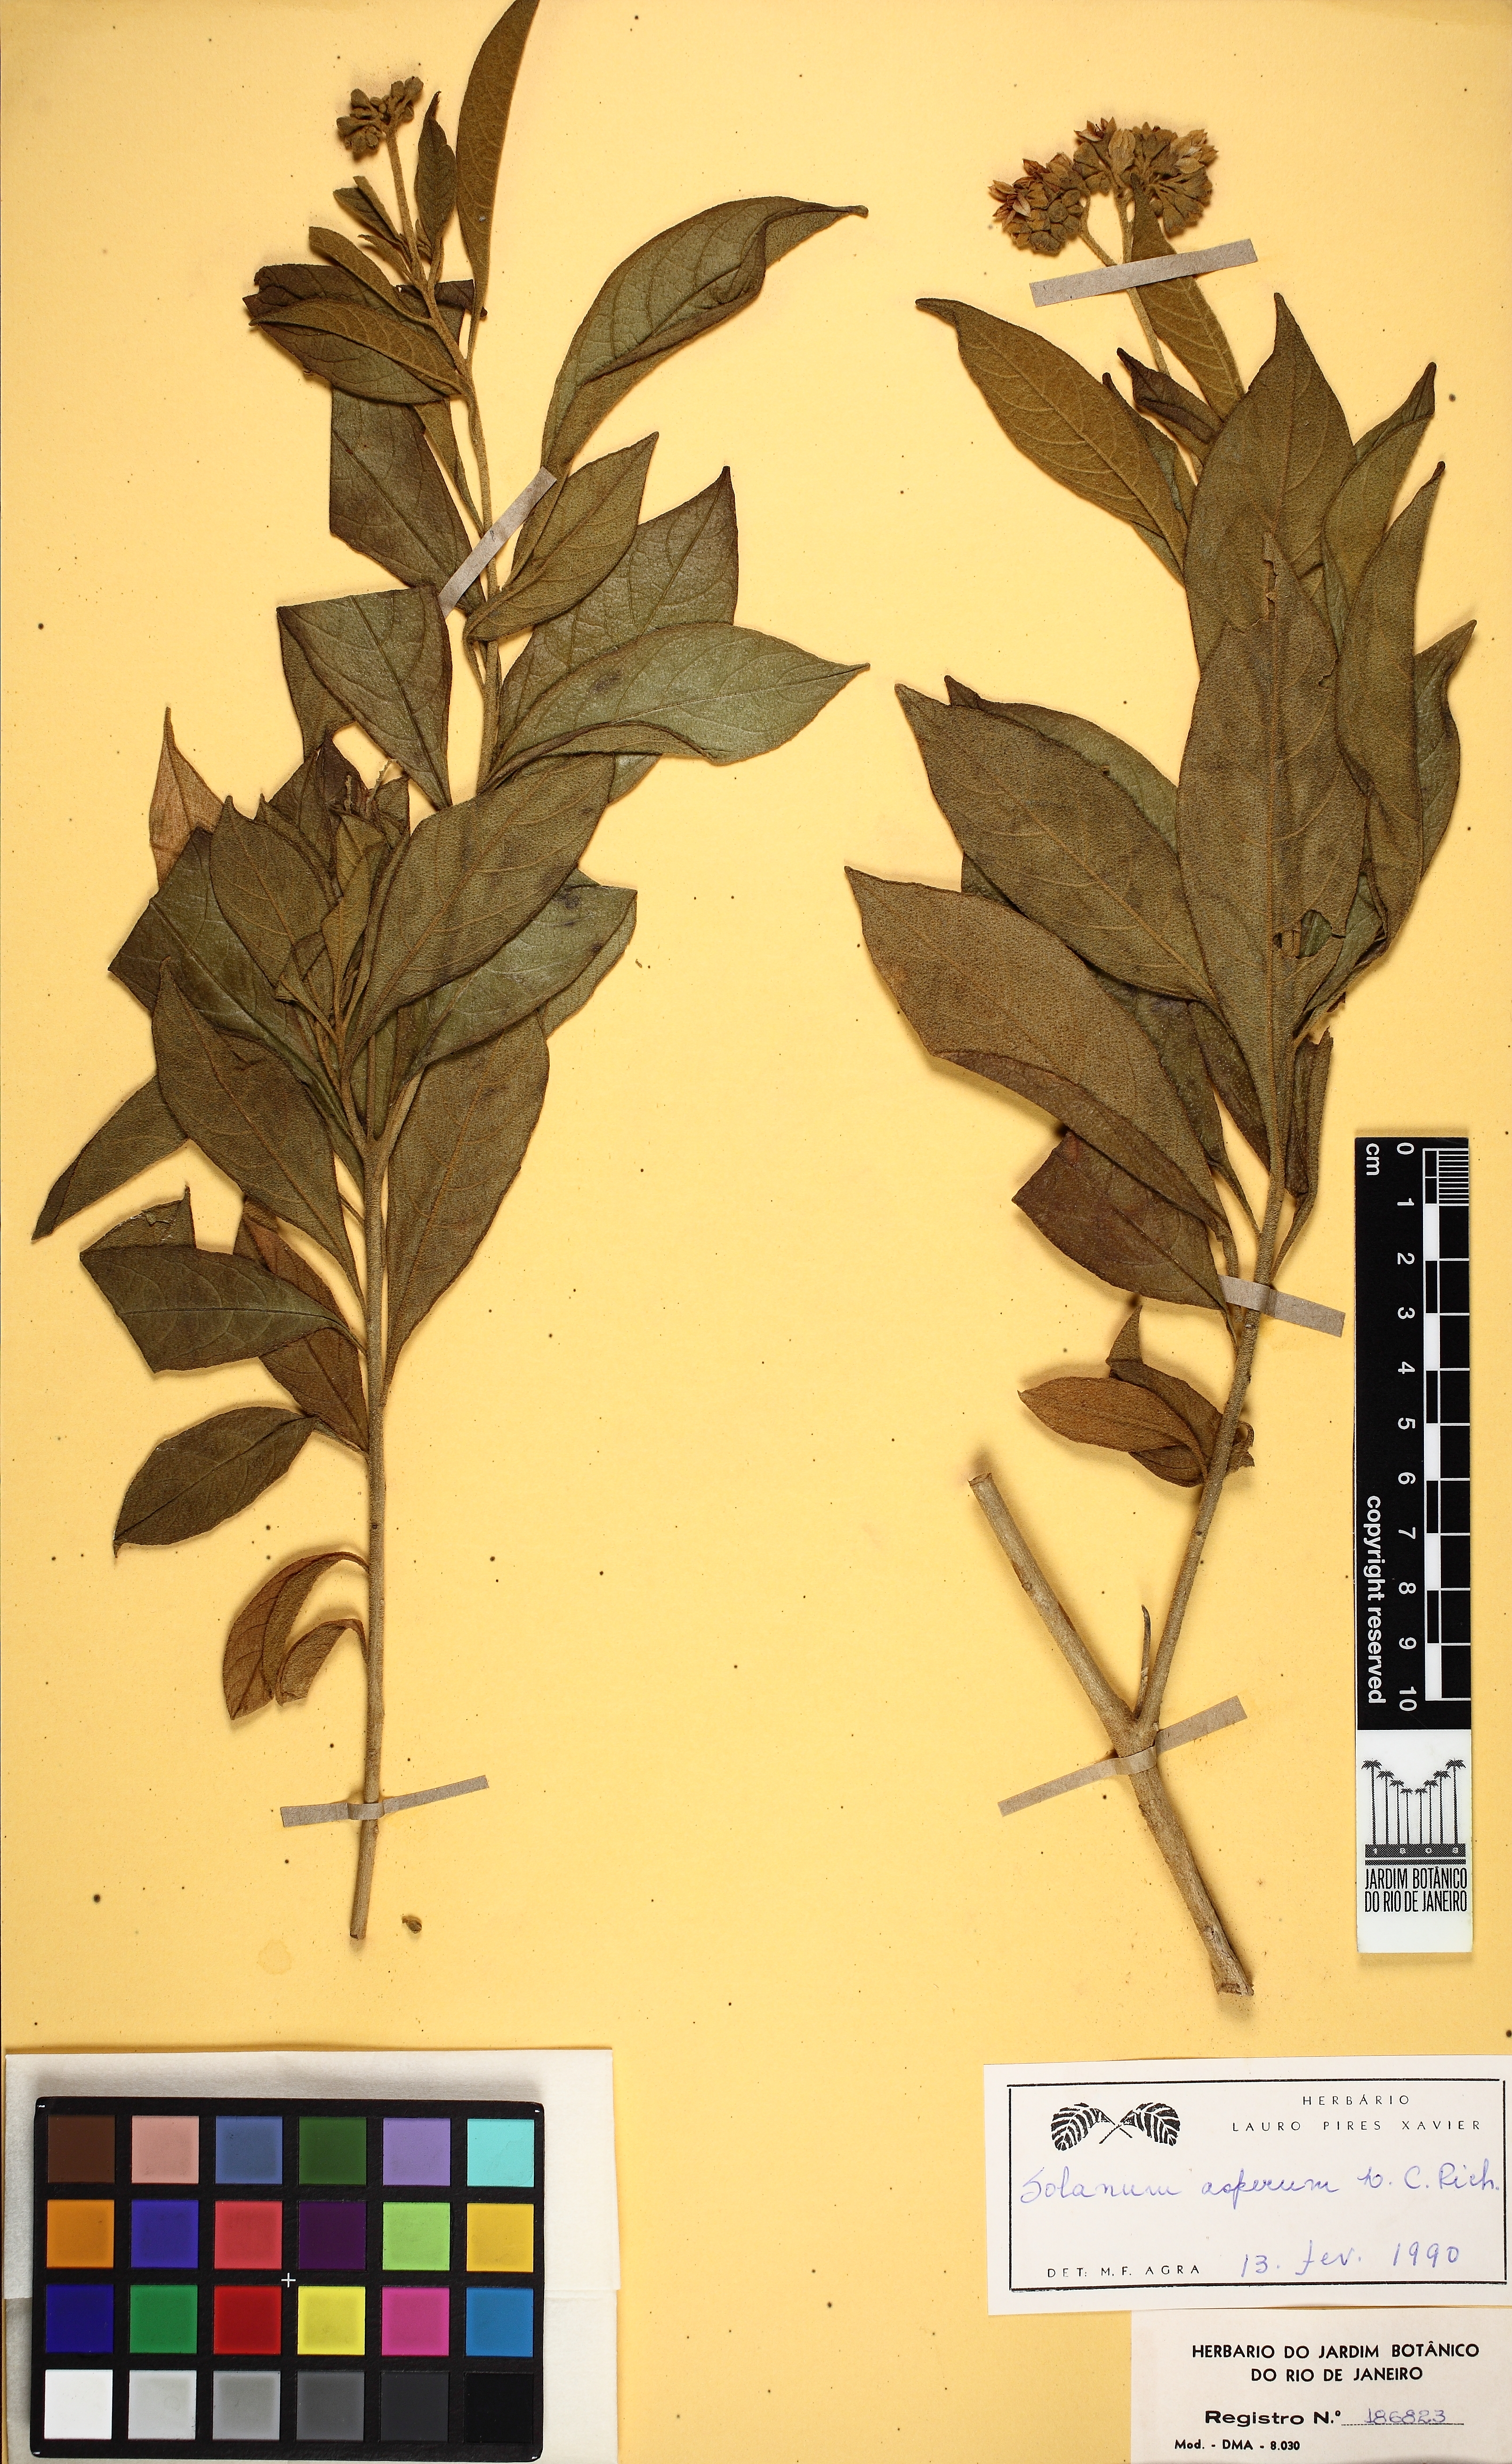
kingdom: Plantae
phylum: Tracheophyta
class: Magnoliopsida
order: Solanales
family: Solanaceae
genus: Solanum
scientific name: Solanum asperum
